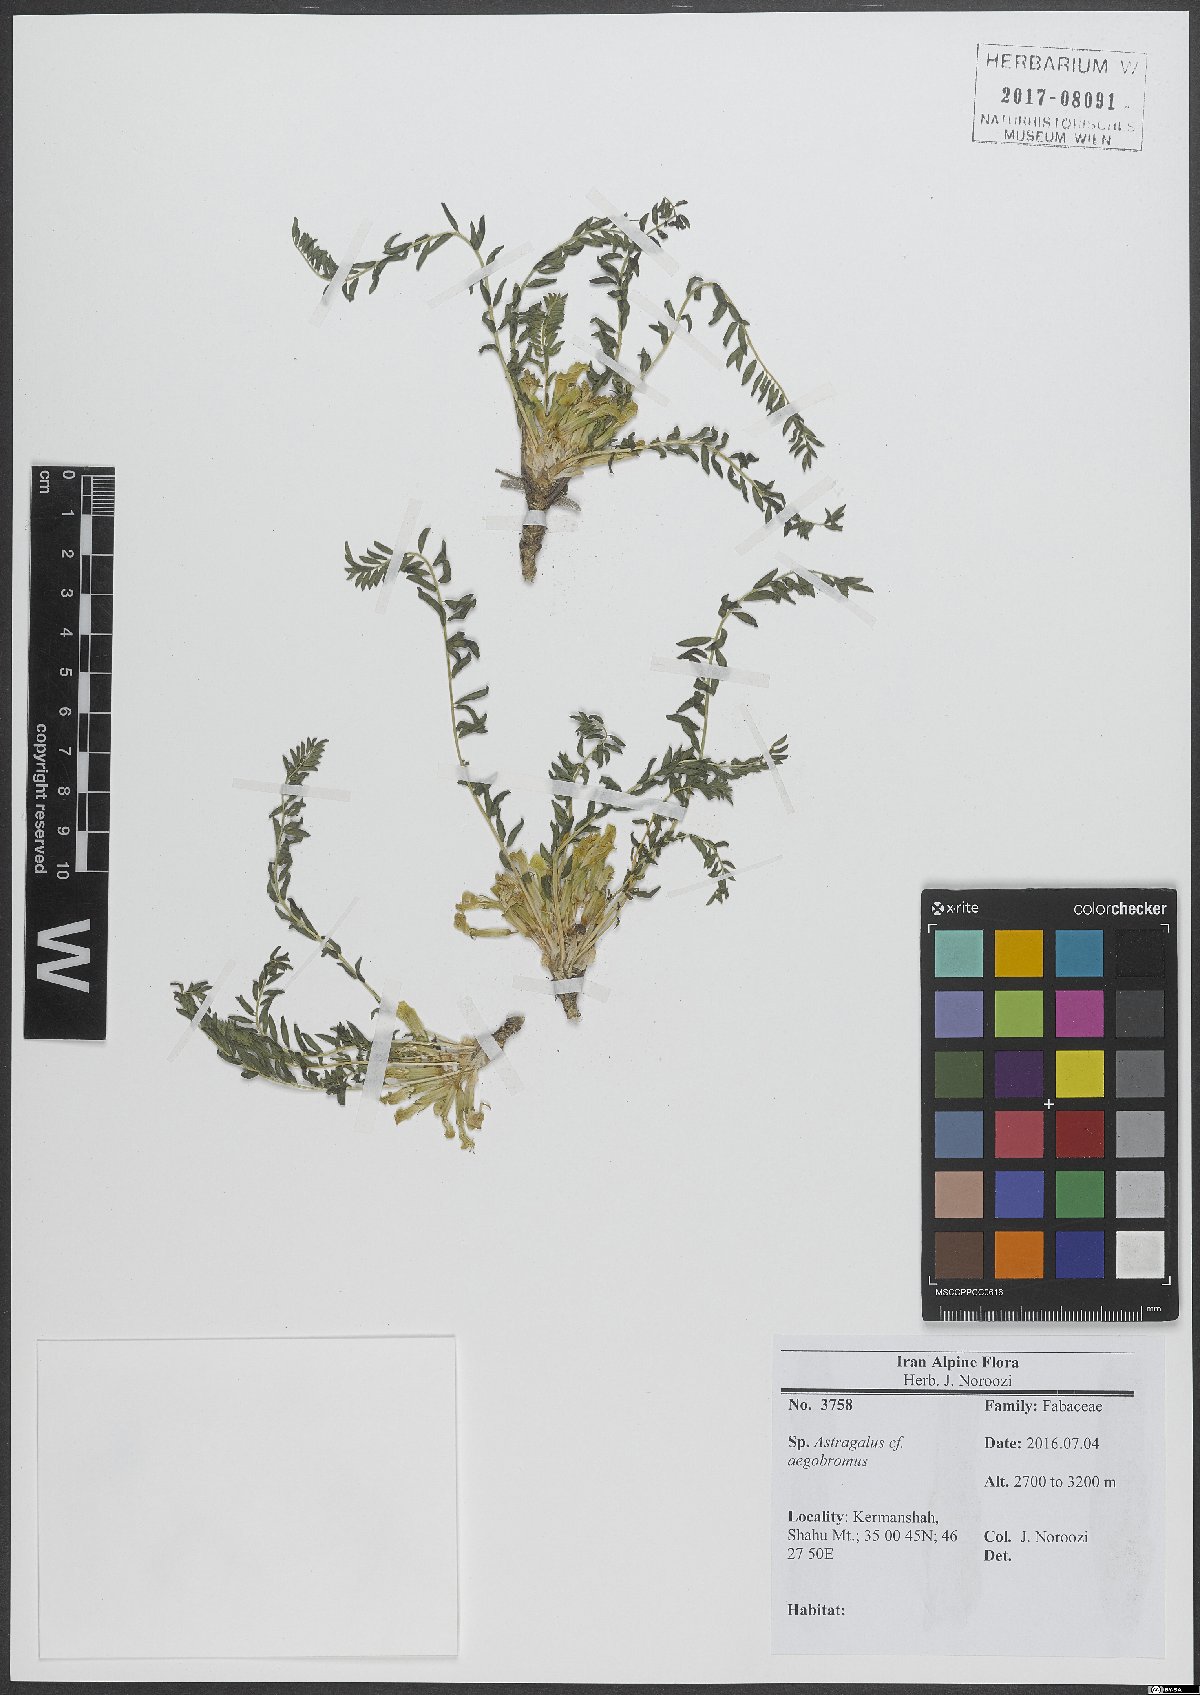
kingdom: Plantae
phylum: Tracheophyta
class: Magnoliopsida
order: Fabales
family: Fabaceae
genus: Astragalus
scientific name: Astragalus aegobromus
